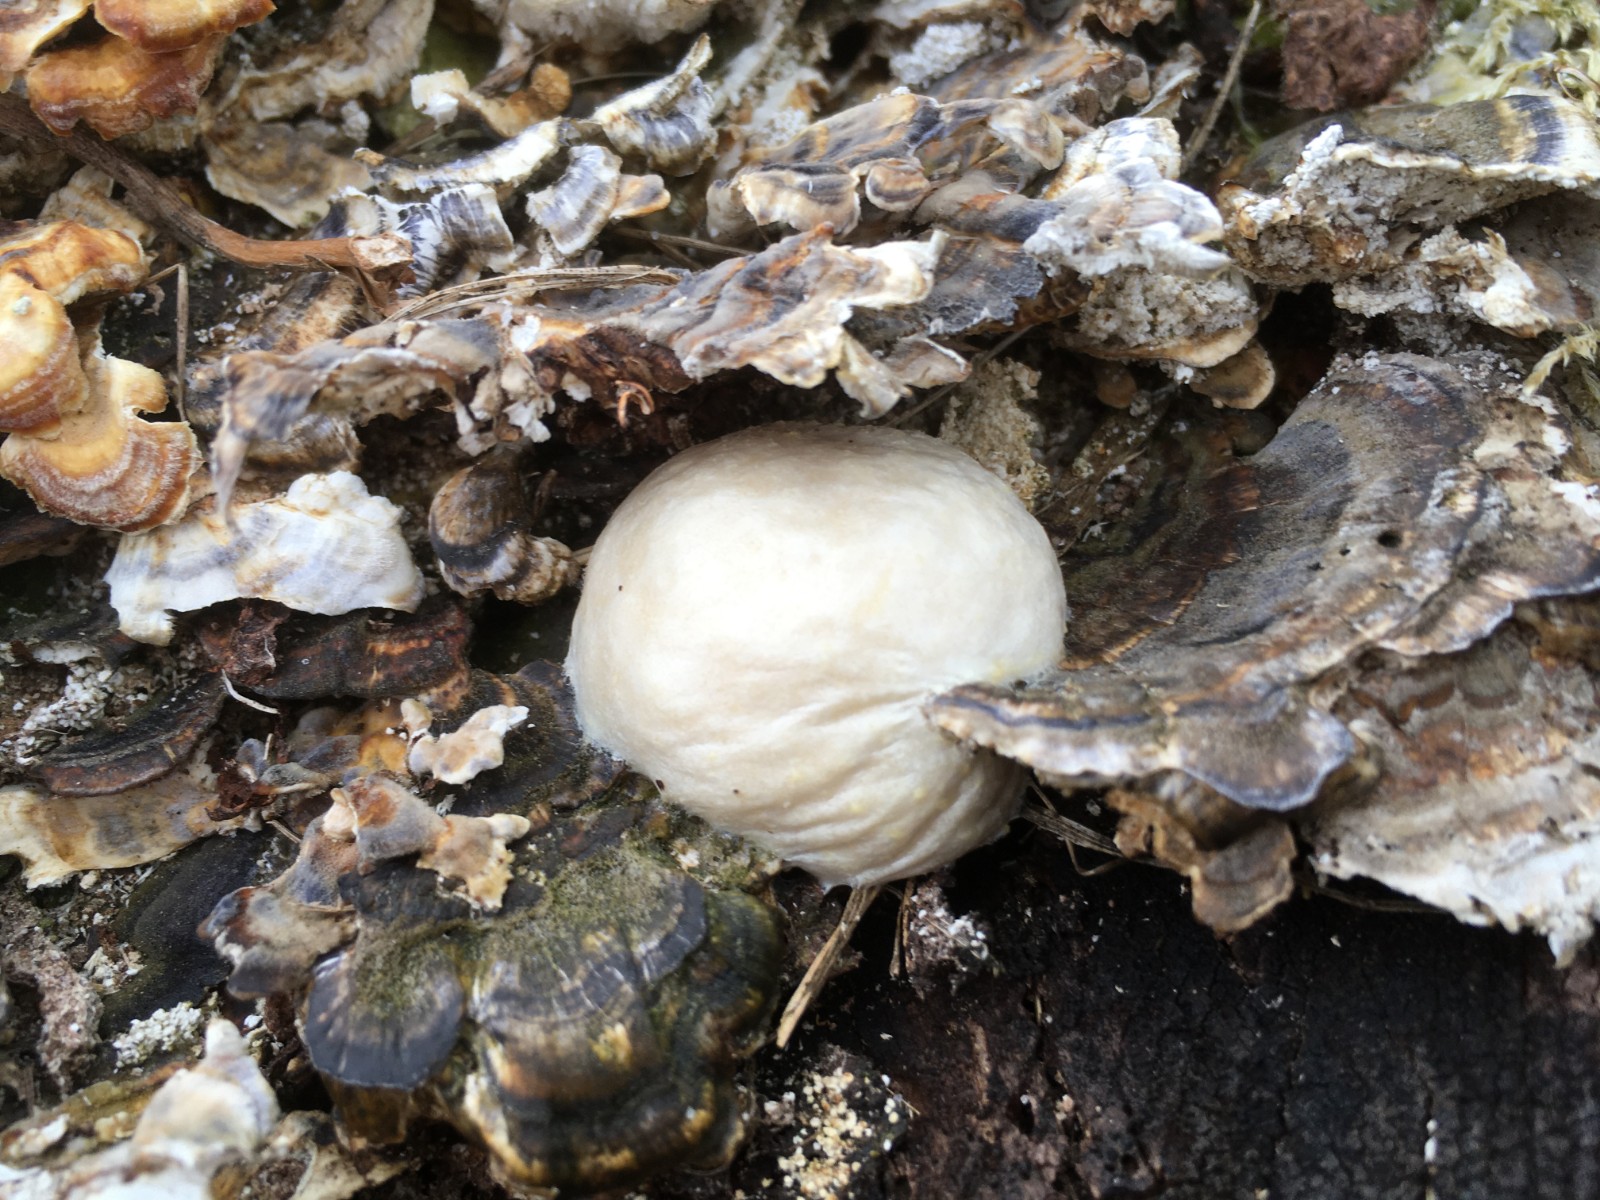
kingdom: Protozoa
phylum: Mycetozoa
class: Myxomycetes
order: Cribrariales
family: Tubiferaceae
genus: Reticularia
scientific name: Reticularia lycoperdon
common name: skinnende støvpude
